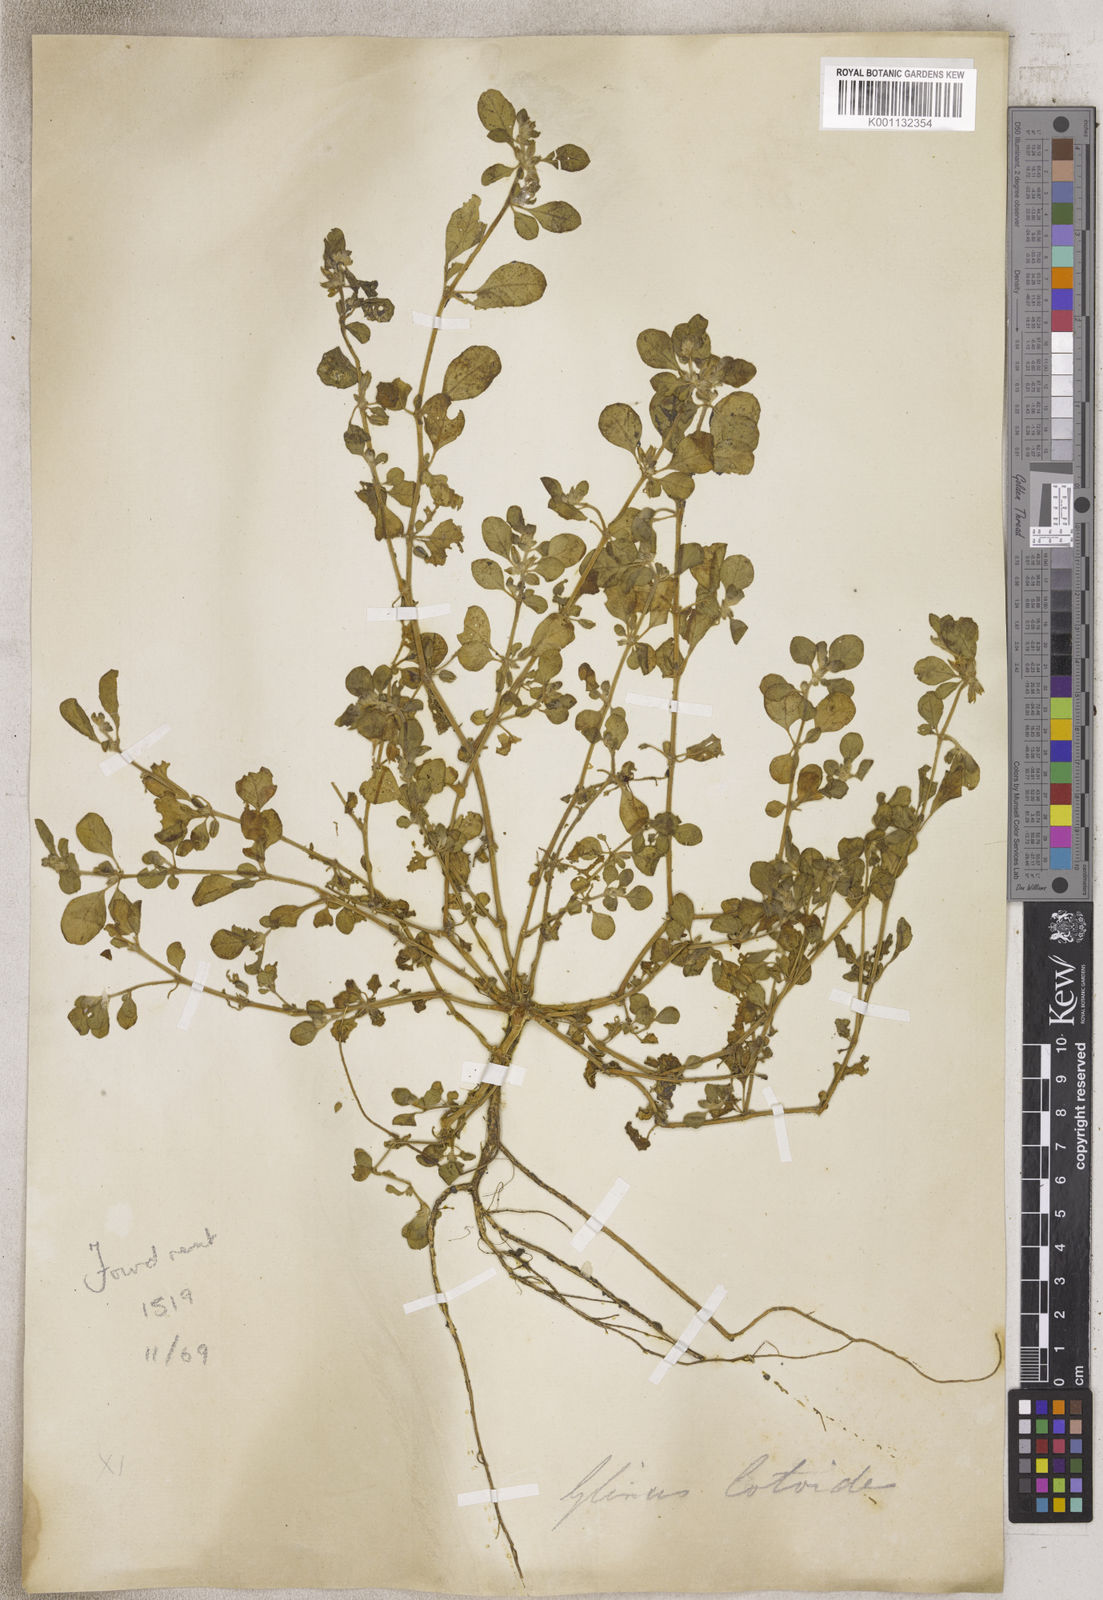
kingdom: Plantae
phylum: Tracheophyta
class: Magnoliopsida
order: Caryophyllales
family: Molluginaceae
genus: Glinus
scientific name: Glinus
